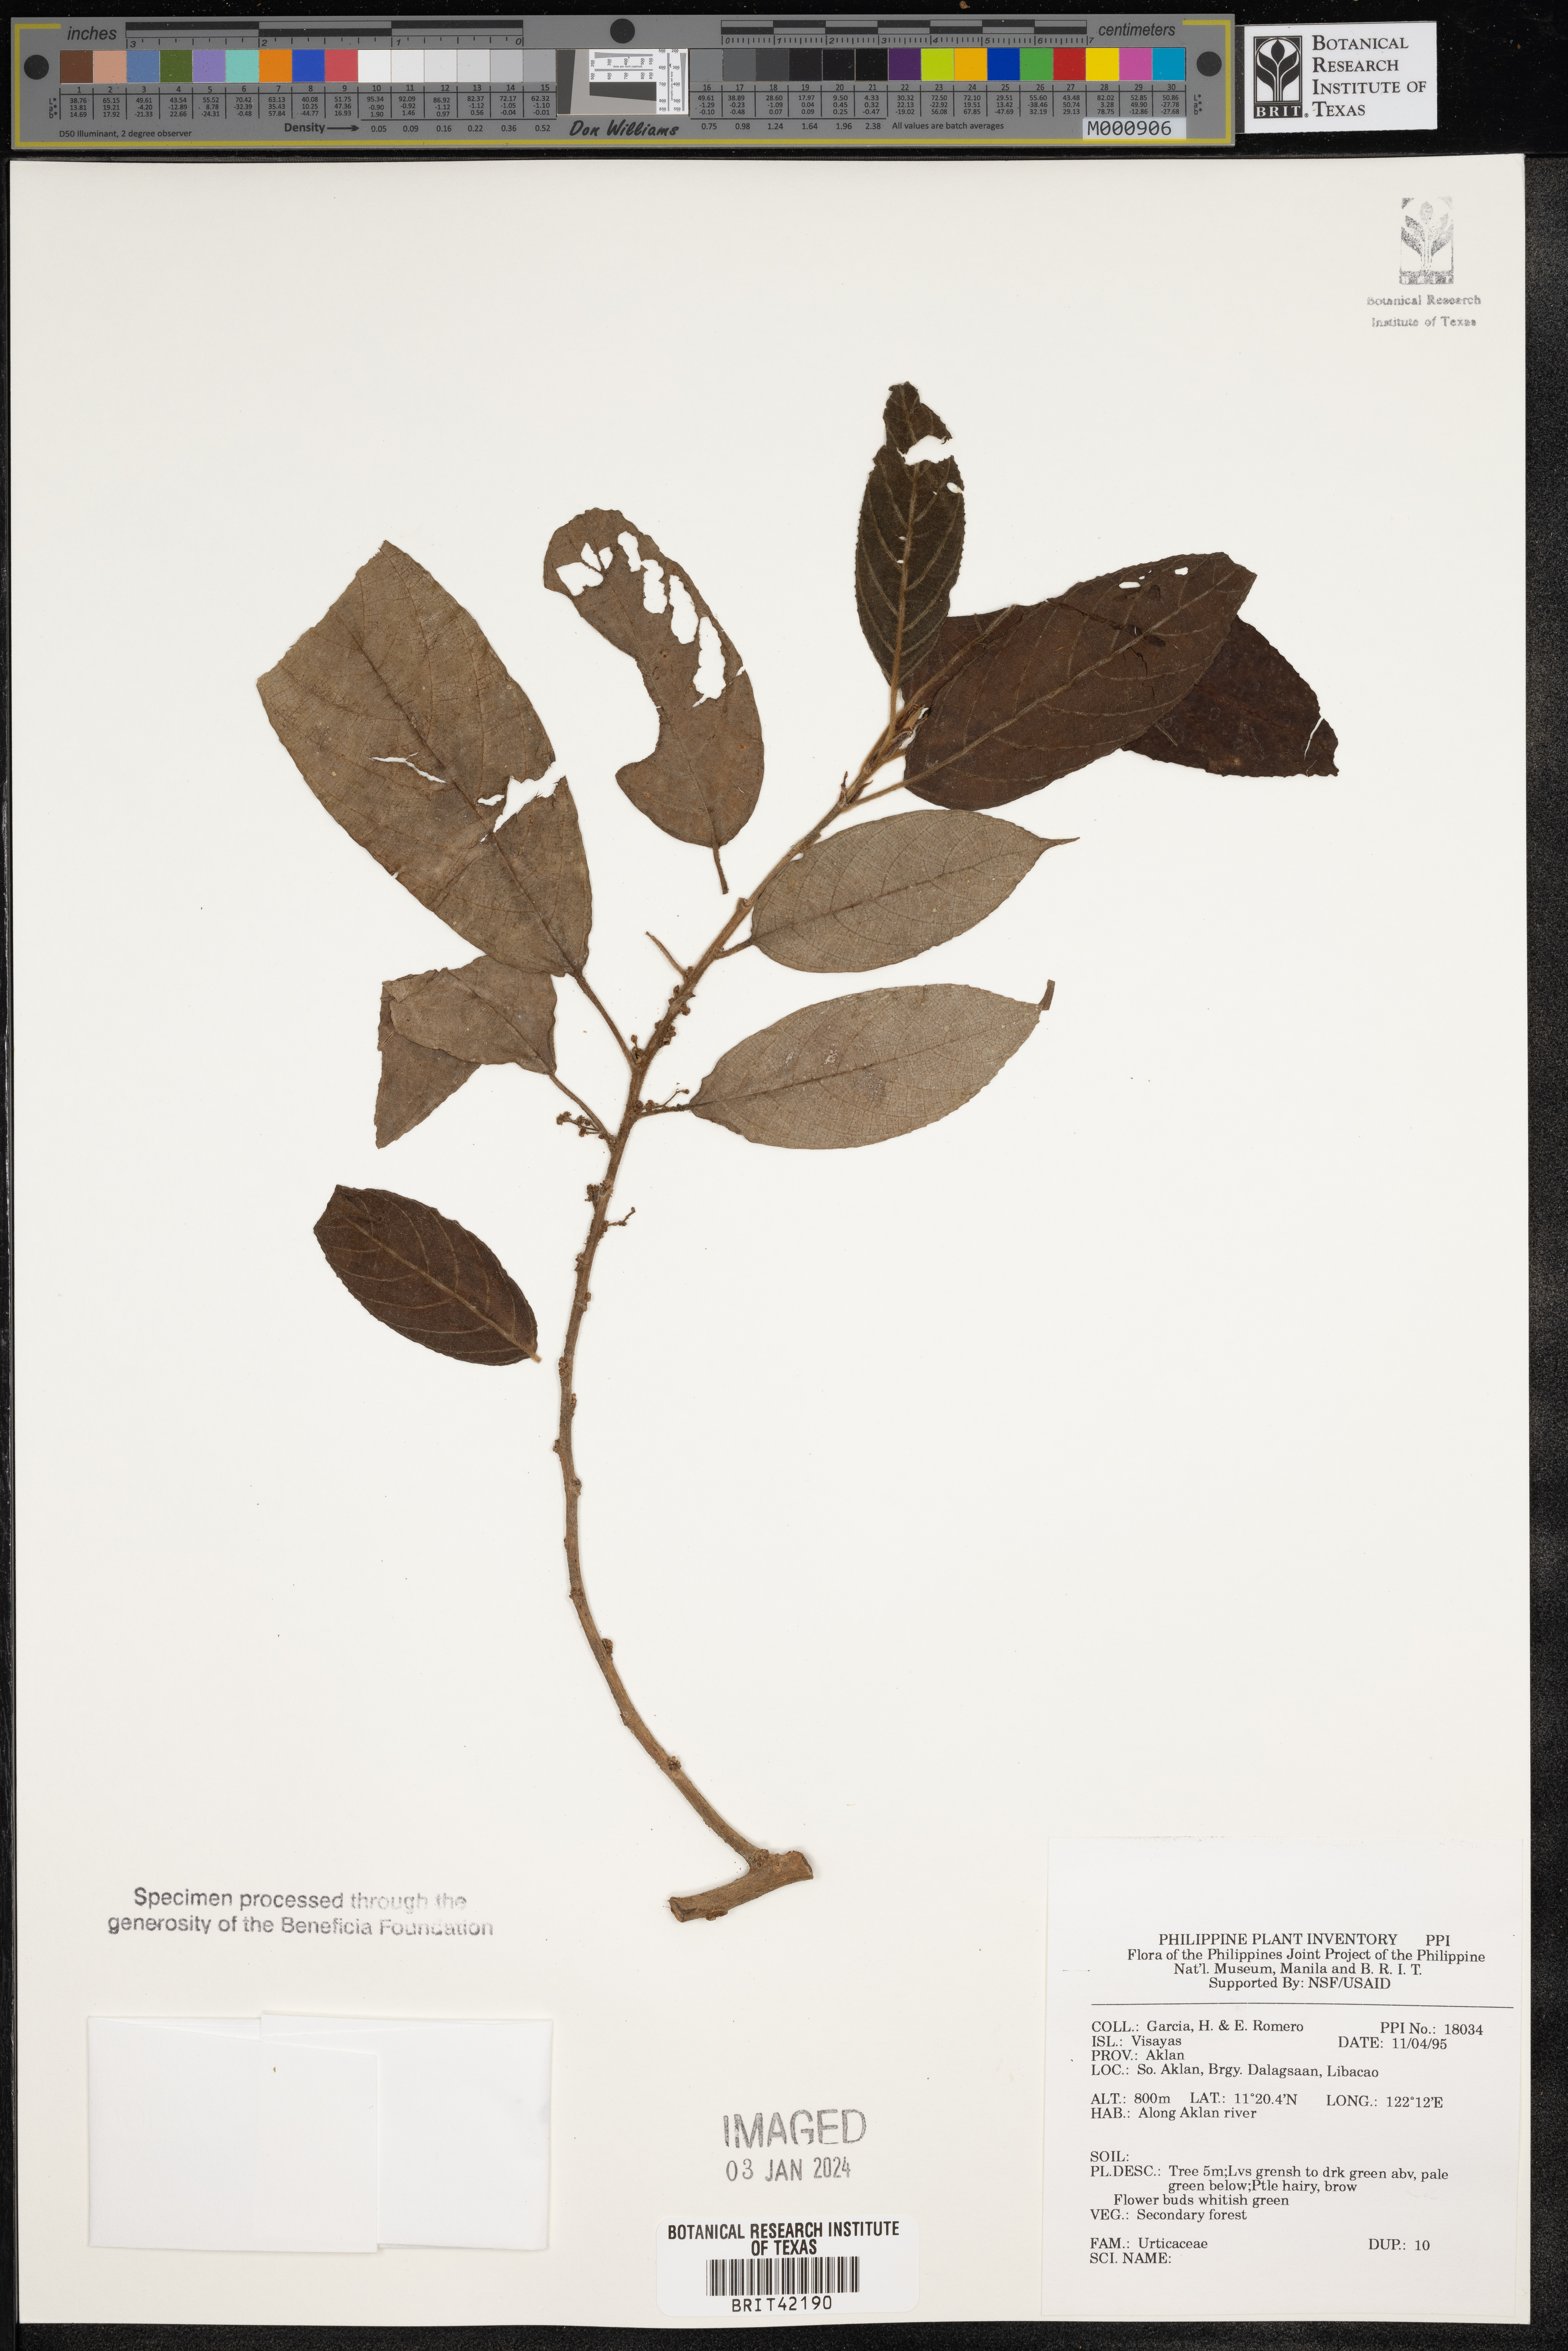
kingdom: Plantae
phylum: Tracheophyta
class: Magnoliopsida
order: Rosales
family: Urticaceae
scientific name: Urticaceae
